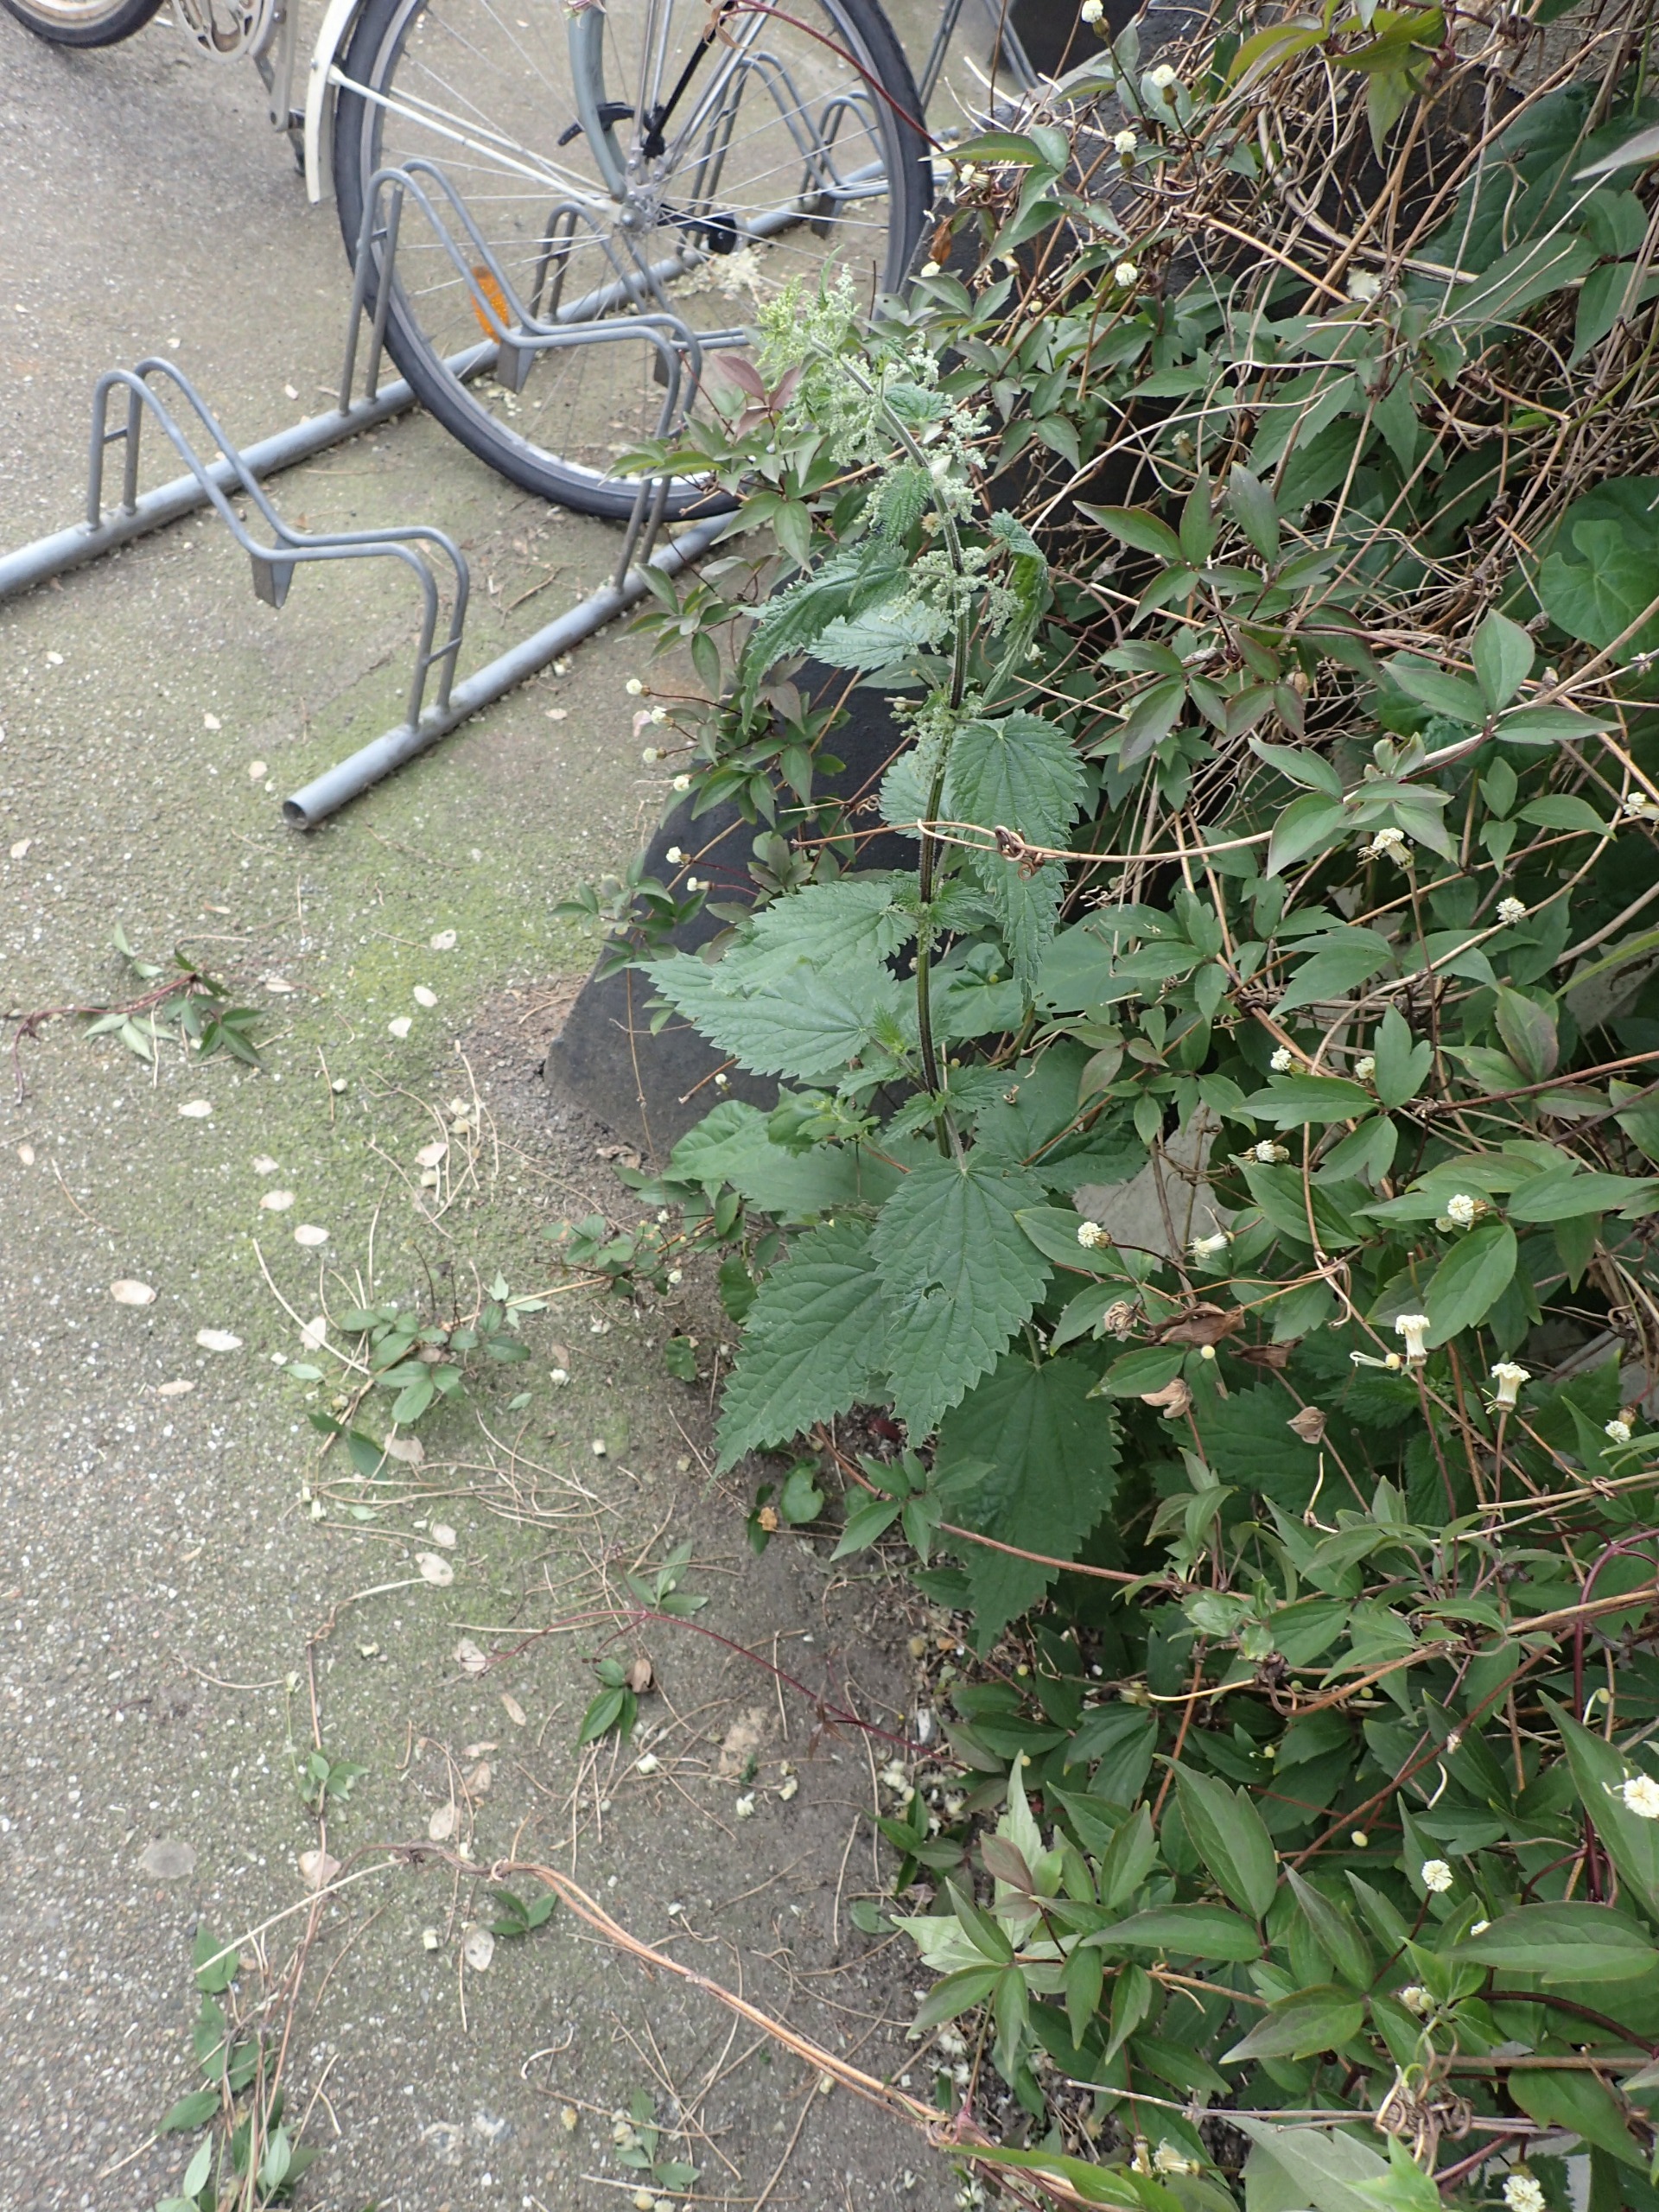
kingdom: Plantae
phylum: Tracheophyta
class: Magnoliopsida
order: Rosales
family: Urticaceae
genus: Urtica
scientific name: Urtica dioica
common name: Stor nælde
